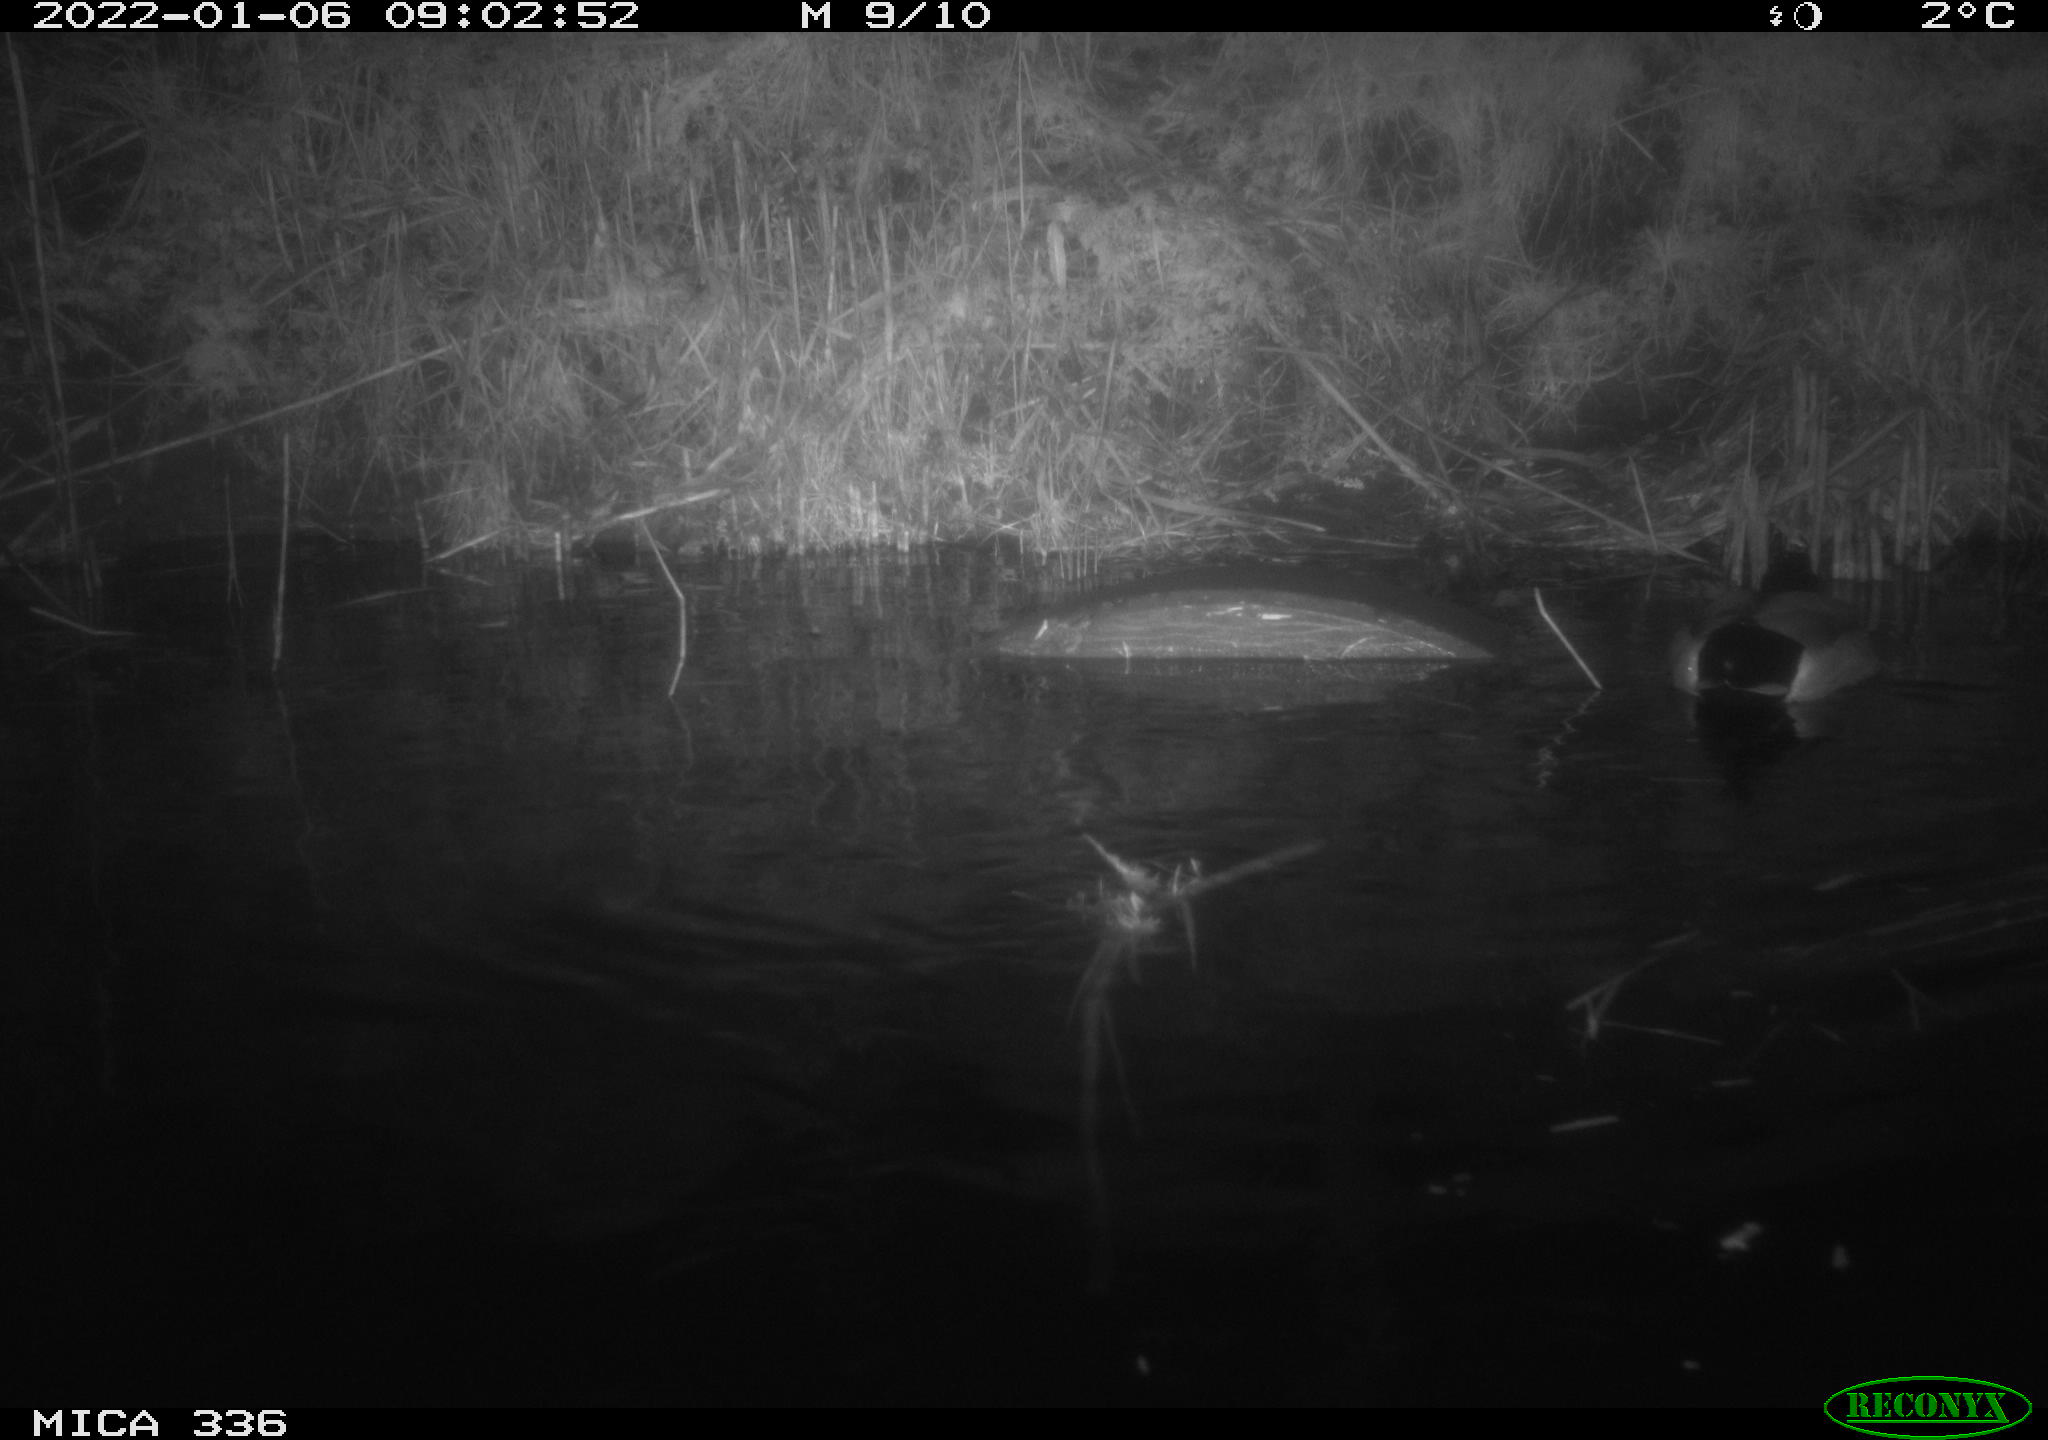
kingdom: Animalia
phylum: Chordata
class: Aves
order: Anseriformes
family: Anatidae
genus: Anas
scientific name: Anas platyrhynchos
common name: Mallard
